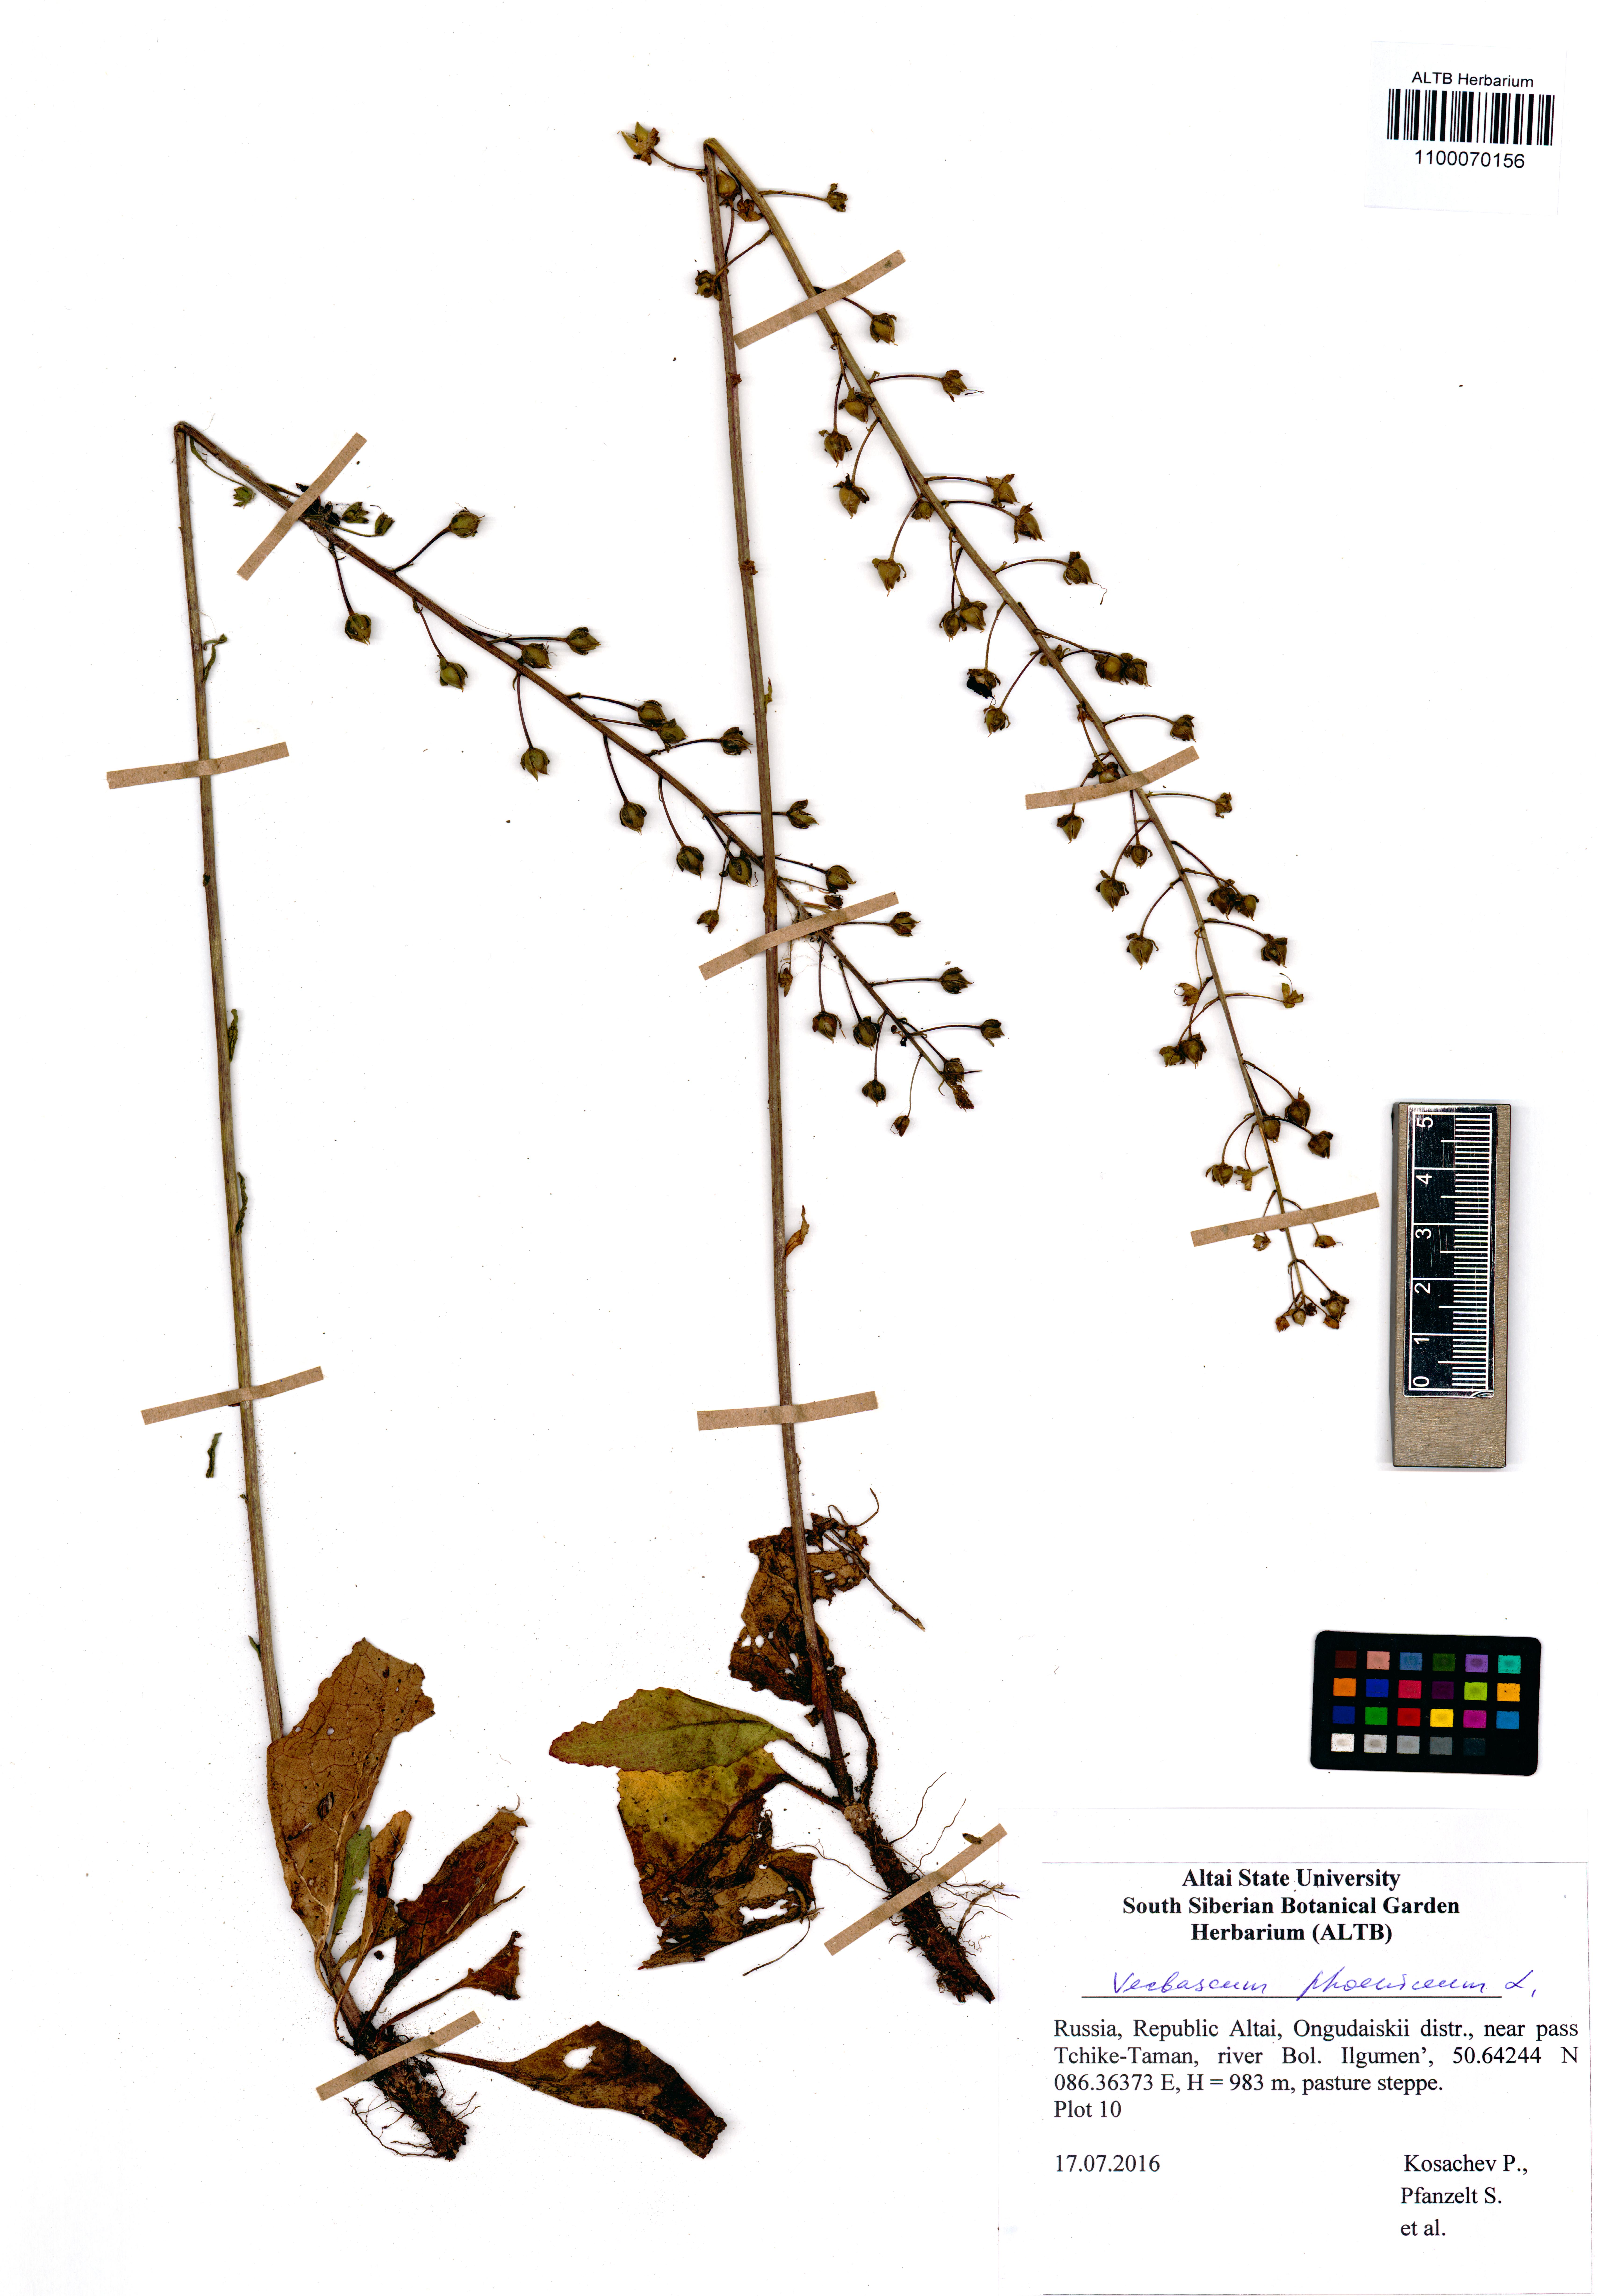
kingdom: Plantae
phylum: Tracheophyta
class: Magnoliopsida
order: Lamiales
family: Scrophulariaceae
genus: Verbascum
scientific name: Verbascum phoeniceum
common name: Purple mullein
